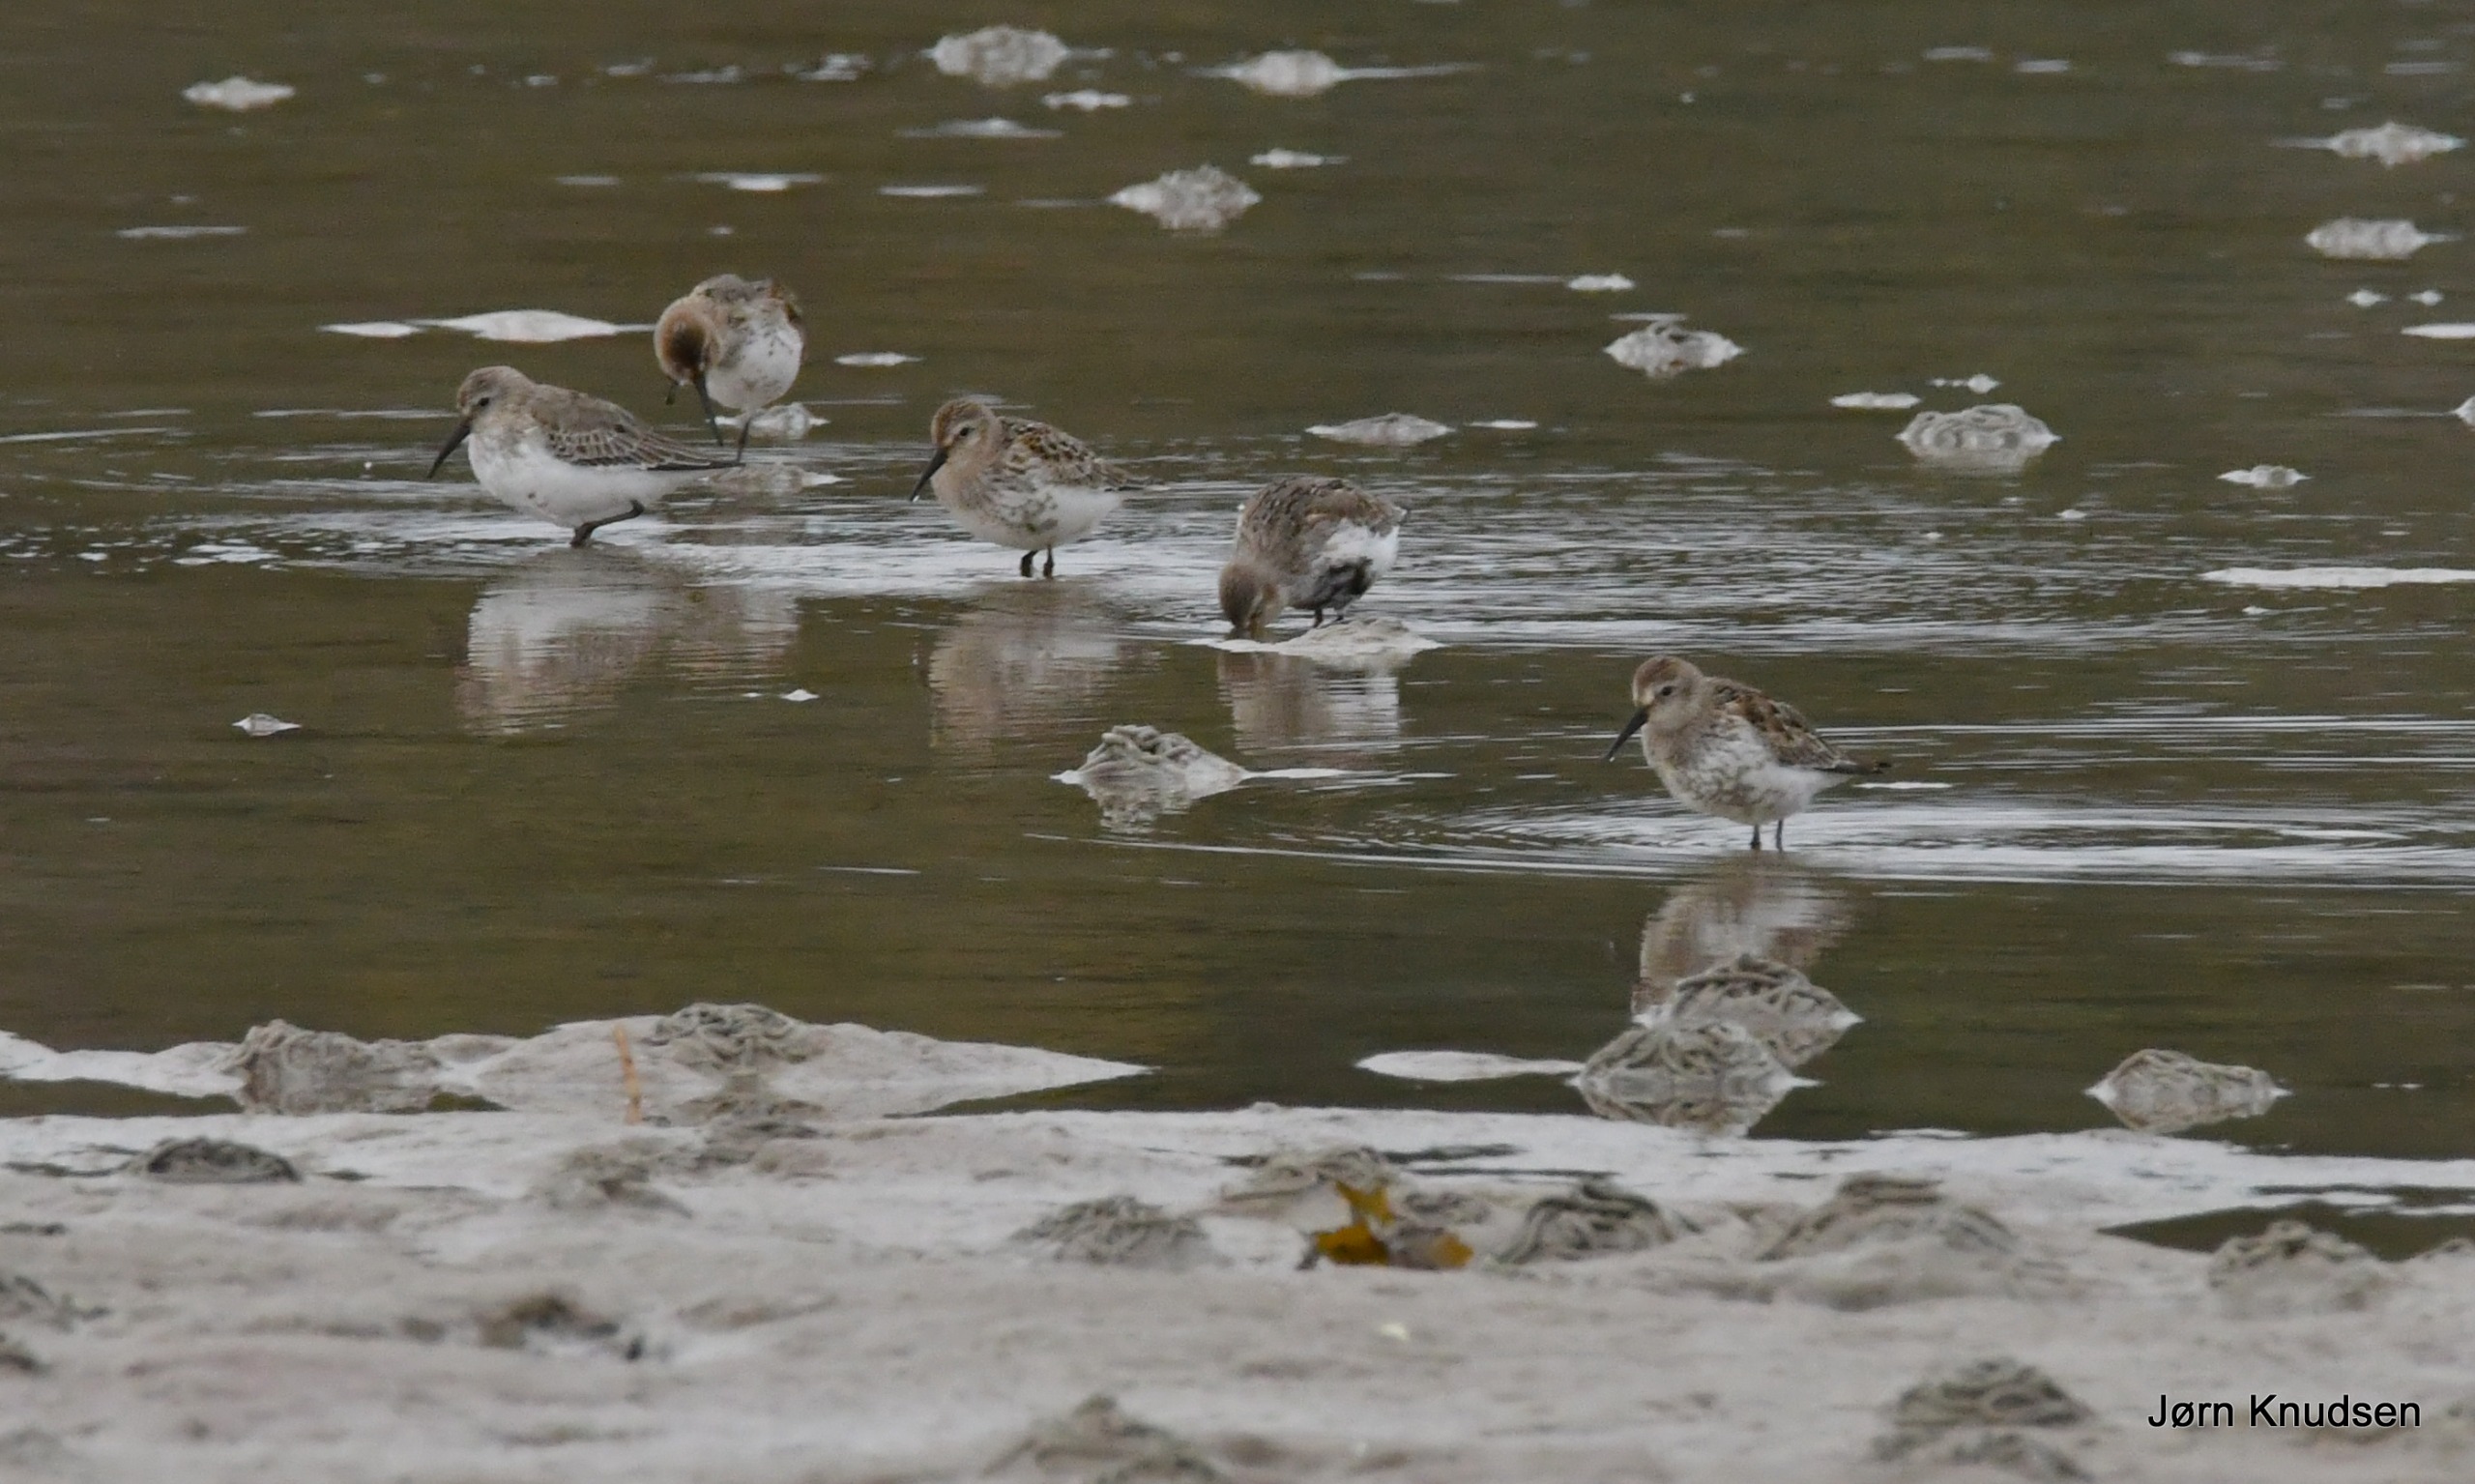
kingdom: Animalia
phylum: Chordata
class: Aves
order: Charadriiformes
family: Scolopacidae
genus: Calidris
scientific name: Calidris alpina
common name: Almindelig ryle
